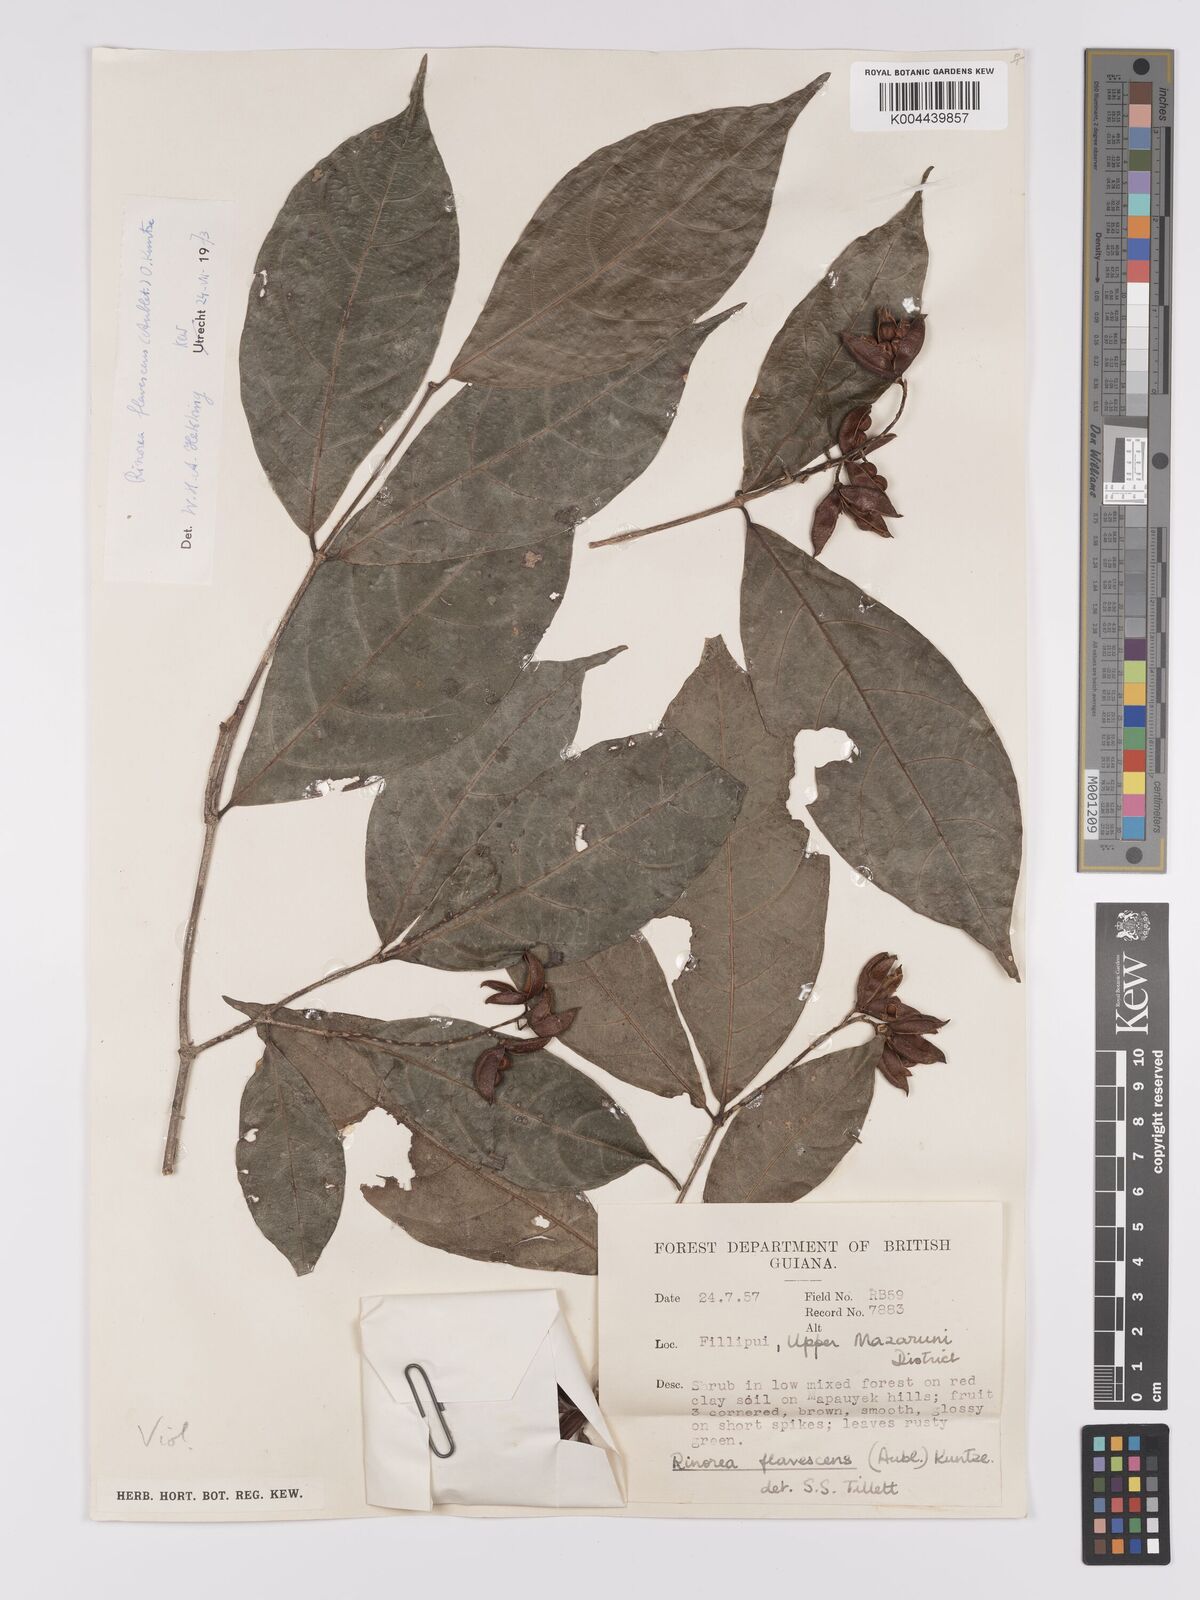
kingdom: Plantae
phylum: Tracheophyta
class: Magnoliopsida
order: Malpighiales
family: Violaceae
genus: Rinorea
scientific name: Rinorea flavescens
